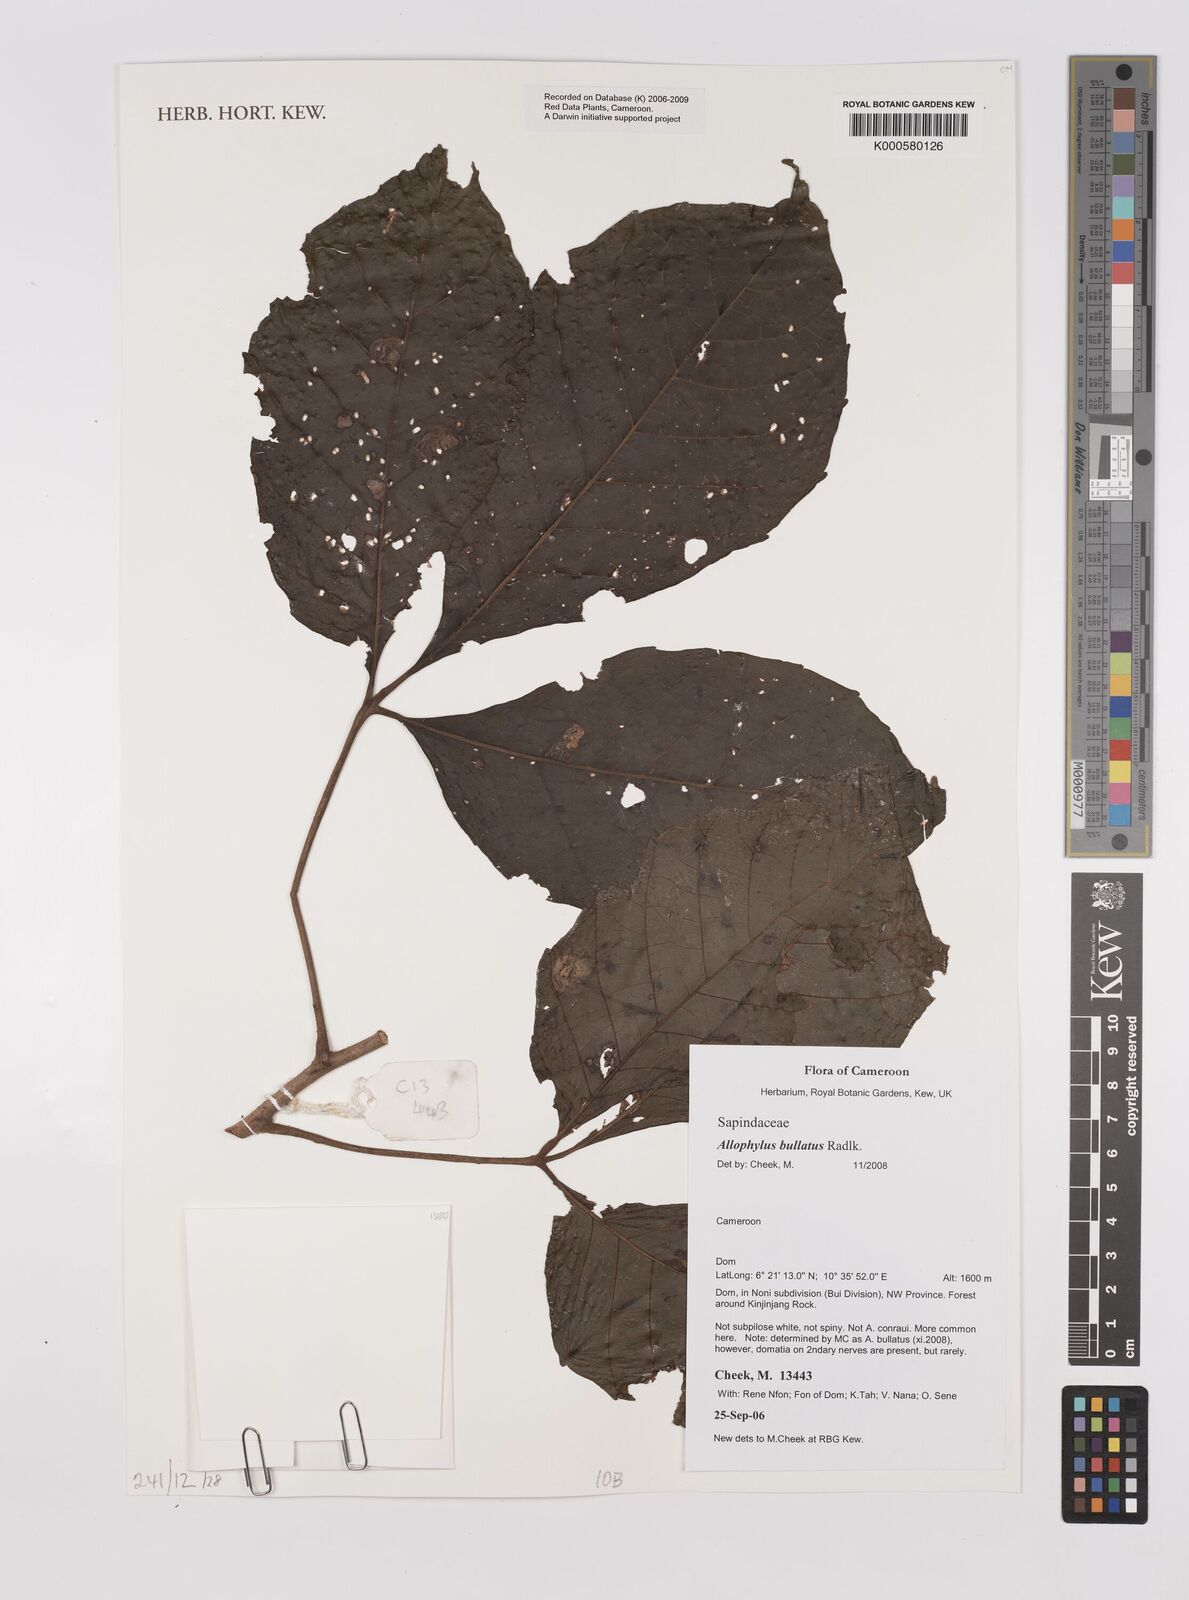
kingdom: Plantae
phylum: Tracheophyta
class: Magnoliopsida
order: Sapindales
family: Sapindaceae
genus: Allophylus
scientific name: Allophylus bullatus
